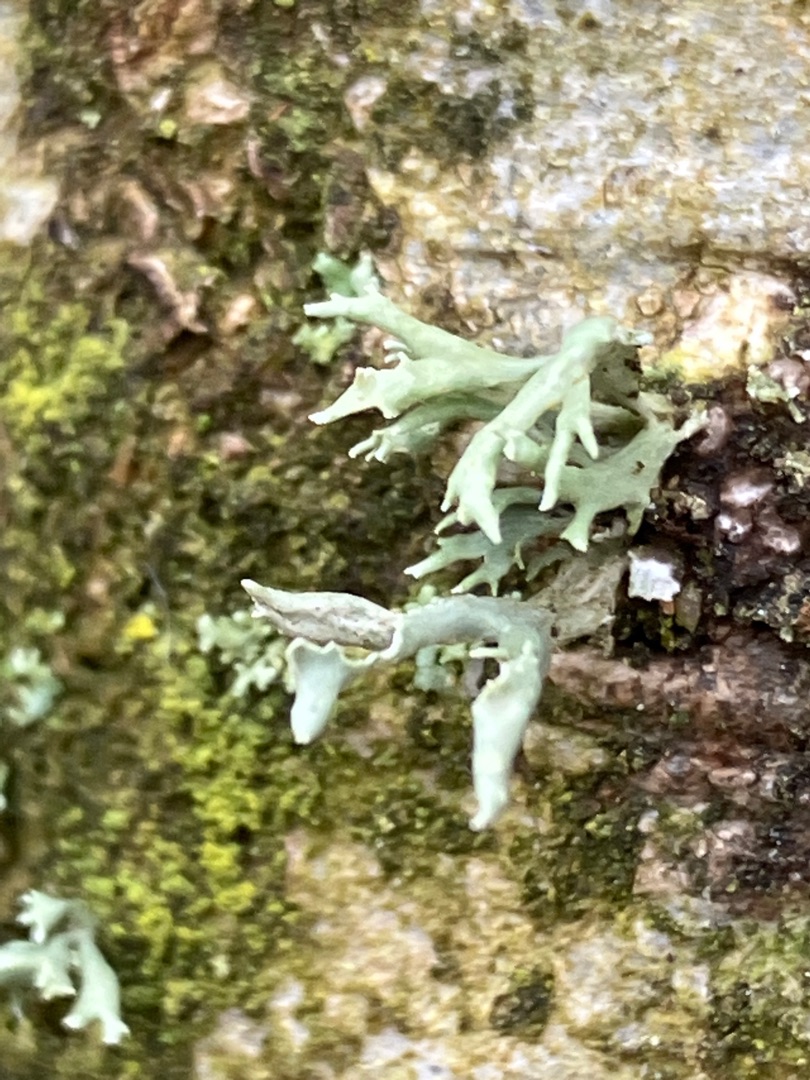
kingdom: Fungi
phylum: Ascomycota
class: Lecanoromycetes
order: Lecanorales
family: Ramalinaceae
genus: Ramalina
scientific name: Ramalina
